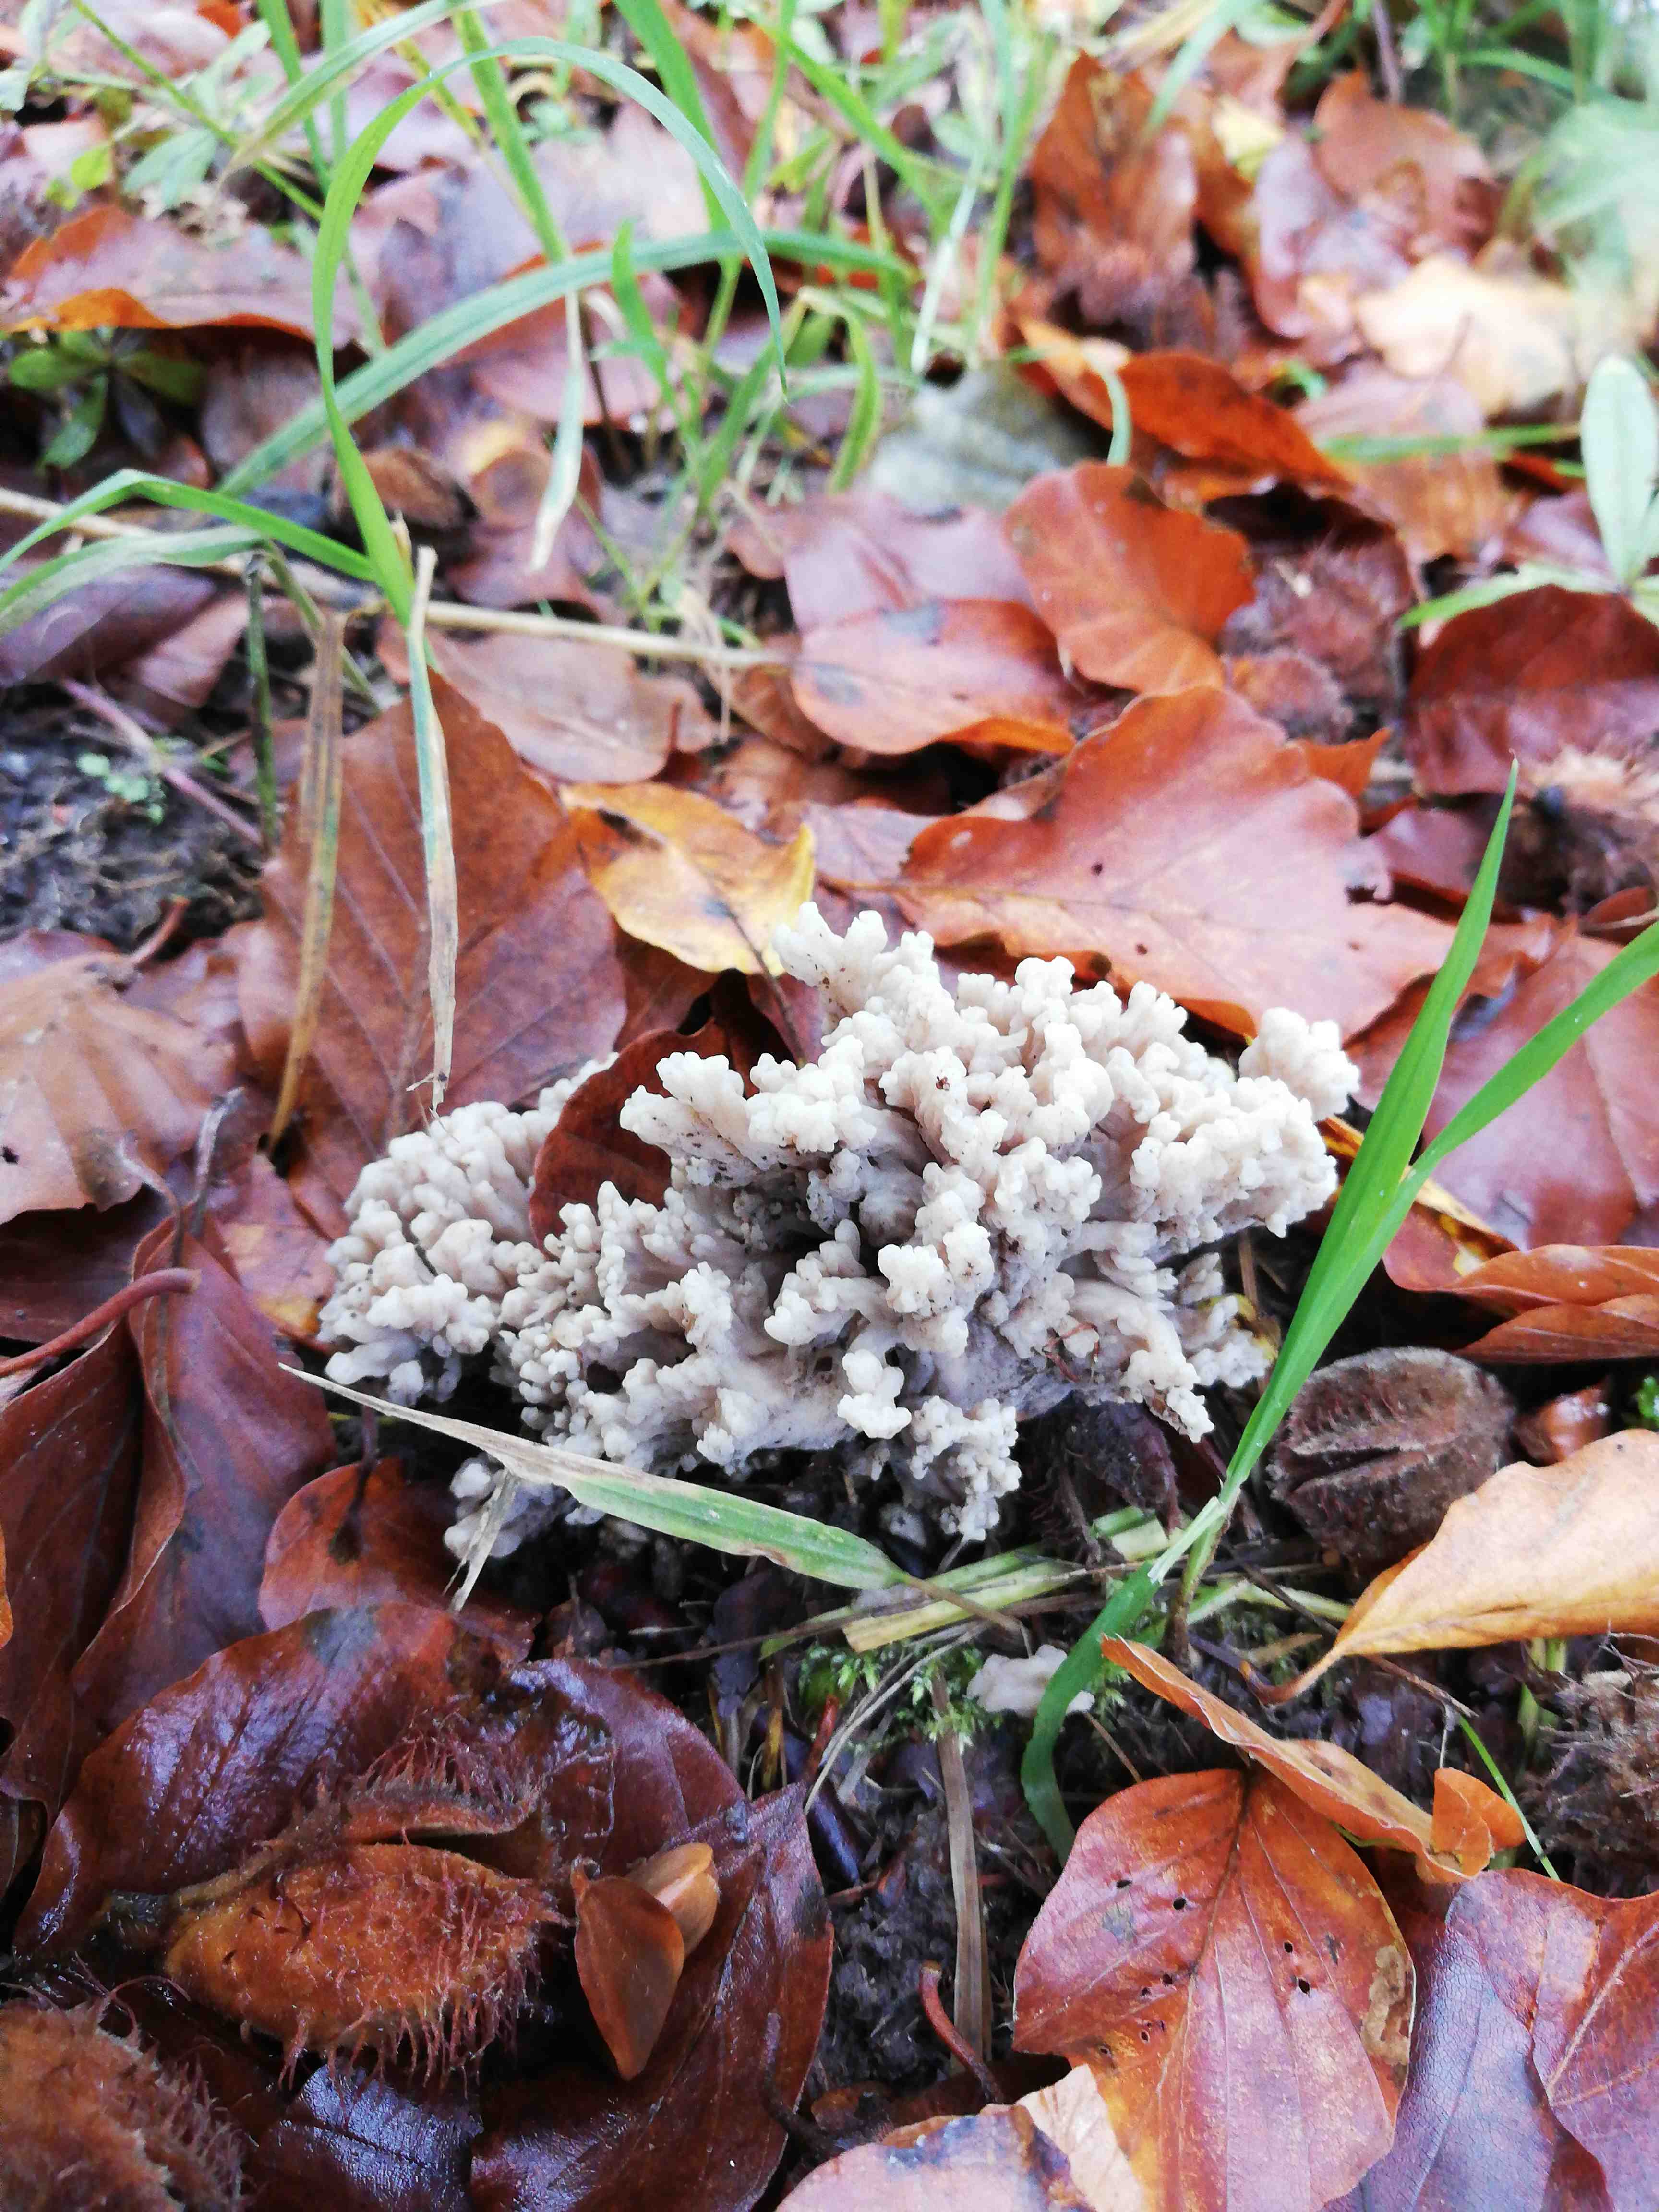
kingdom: Fungi
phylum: Basidiomycota
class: Agaricomycetes
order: Cantharellales
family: Hydnaceae
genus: Clavulina
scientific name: Clavulina
